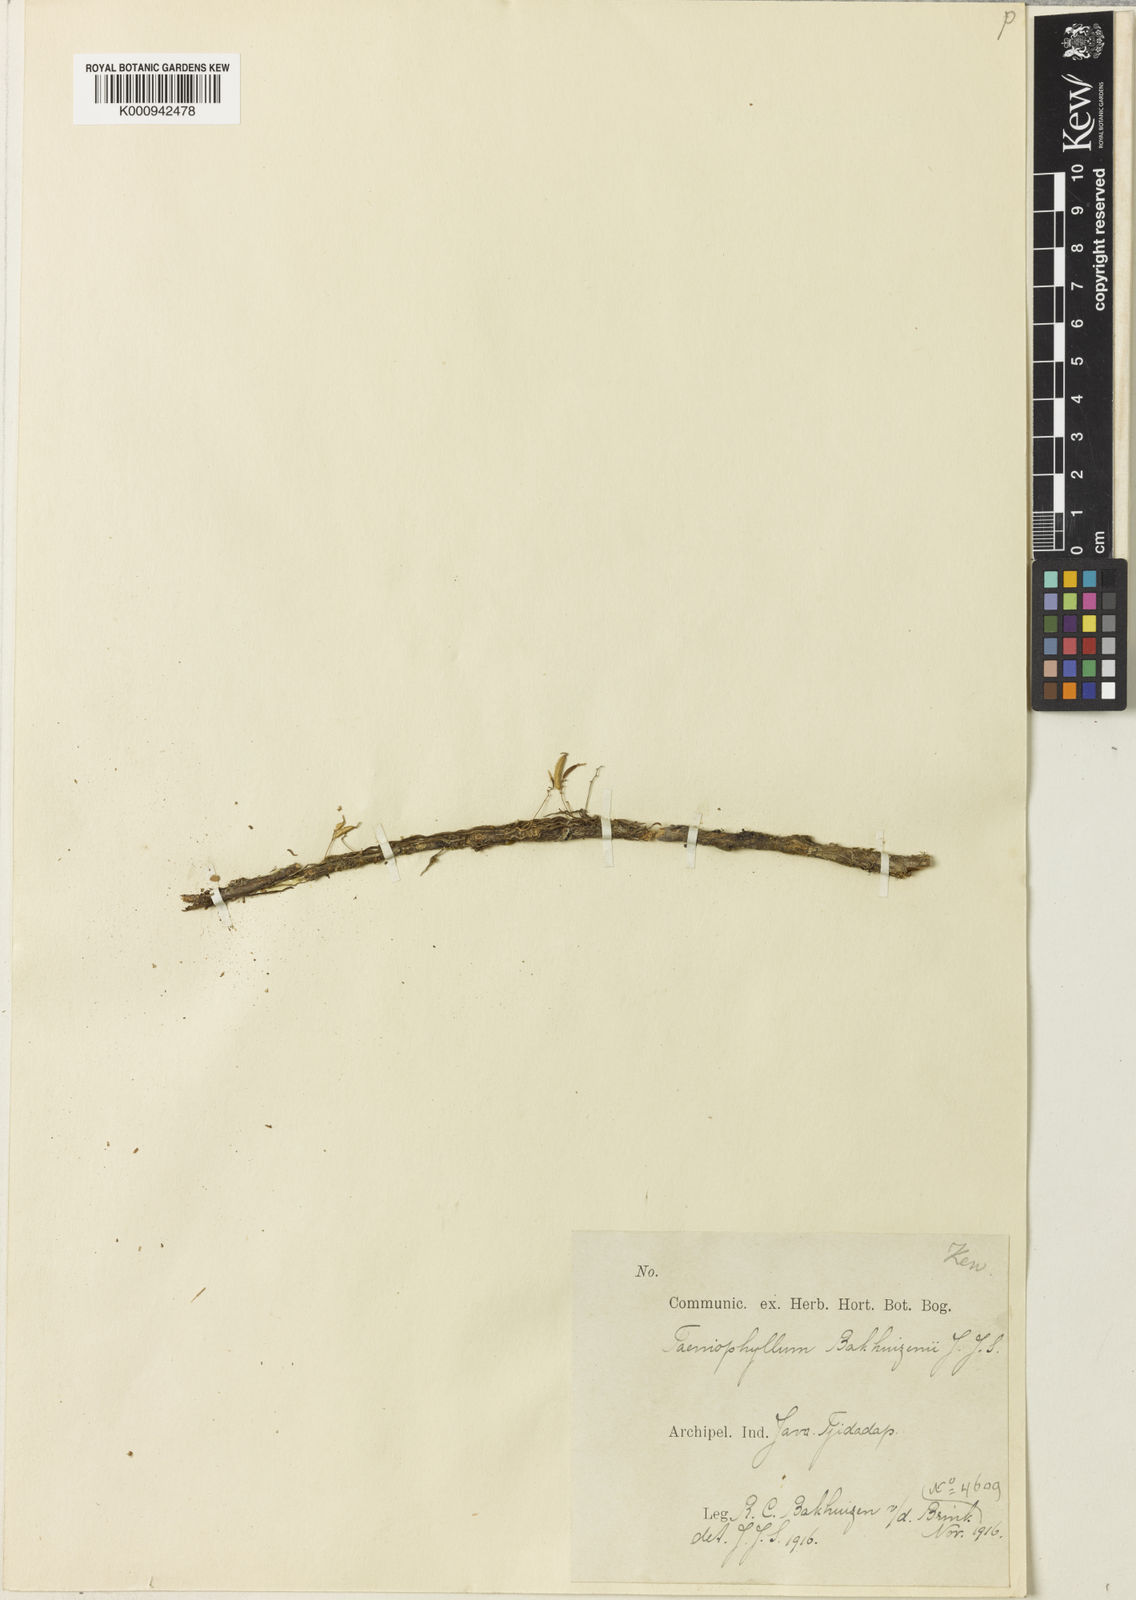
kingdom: Plantae
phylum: Tracheophyta
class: Liliopsida
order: Asparagales
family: Orchidaceae
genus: Taeniophyllum
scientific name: Taeniophyllum bakhuizenii
